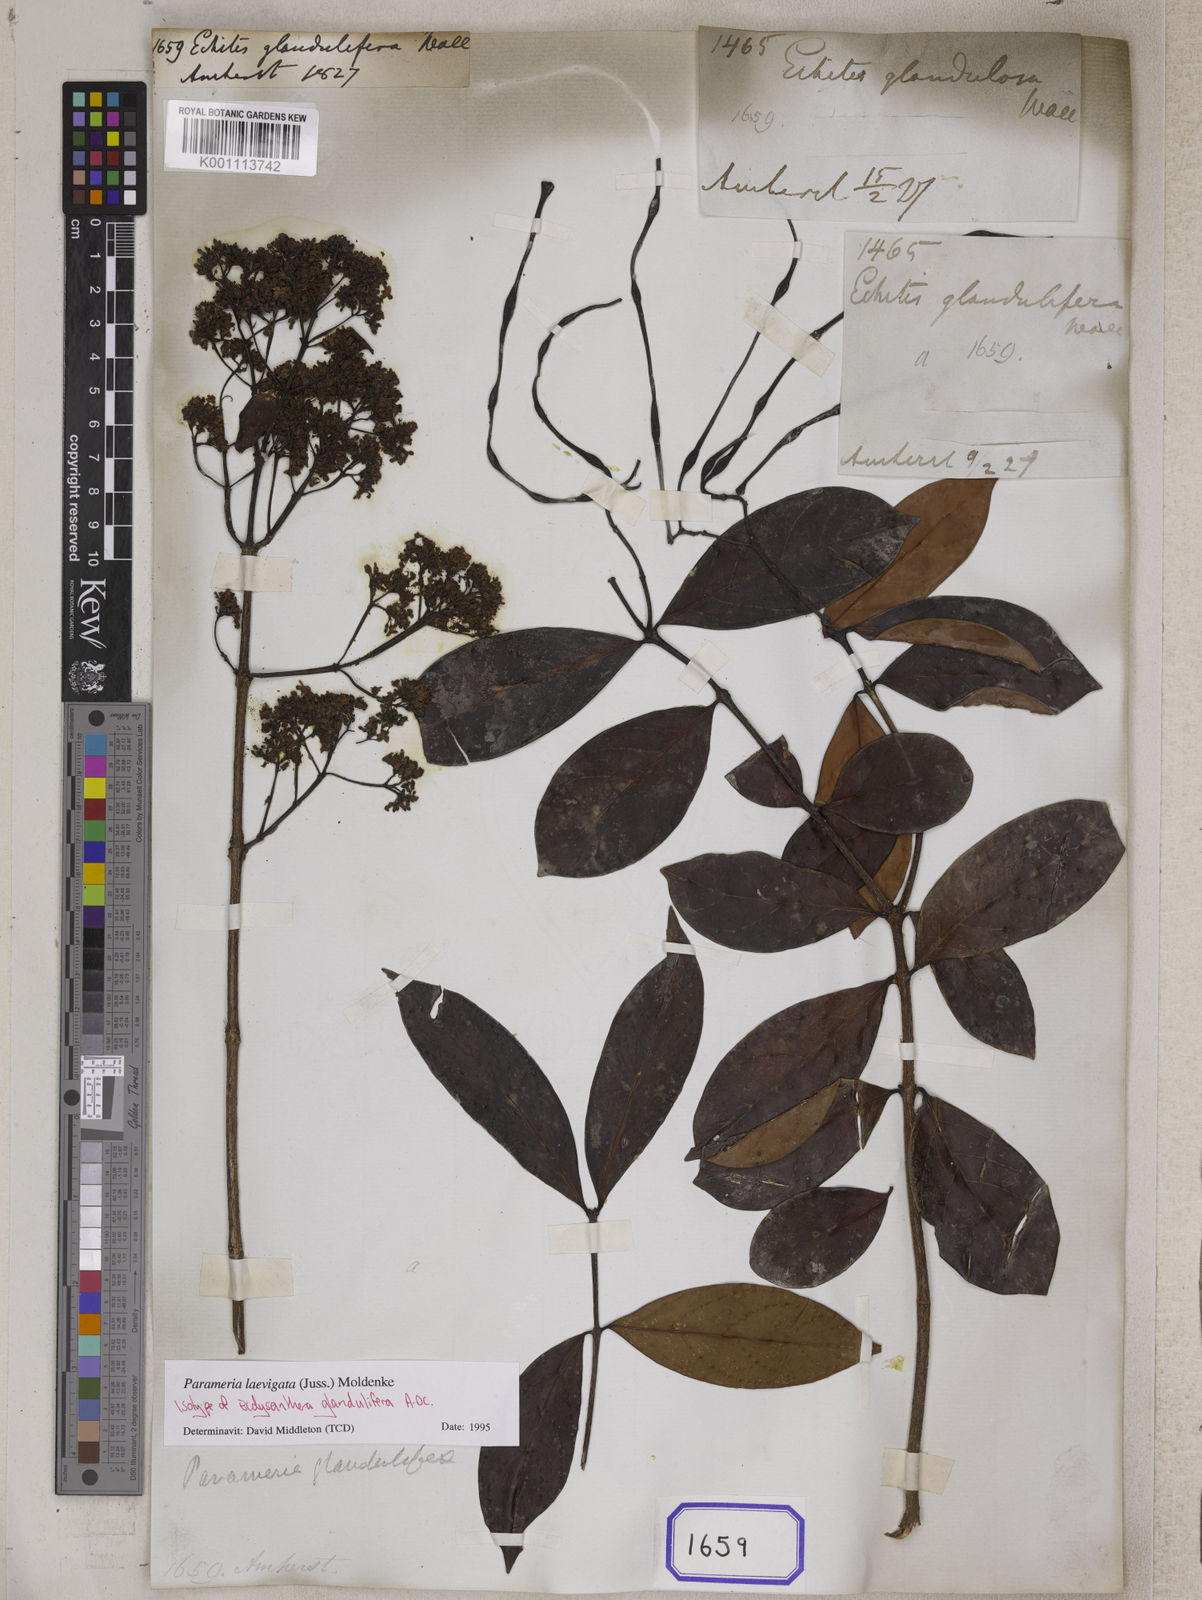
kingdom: Plantae
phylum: Tracheophyta
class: Magnoliopsida
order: Gentianales
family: Apocynaceae
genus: Echites
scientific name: Echites
